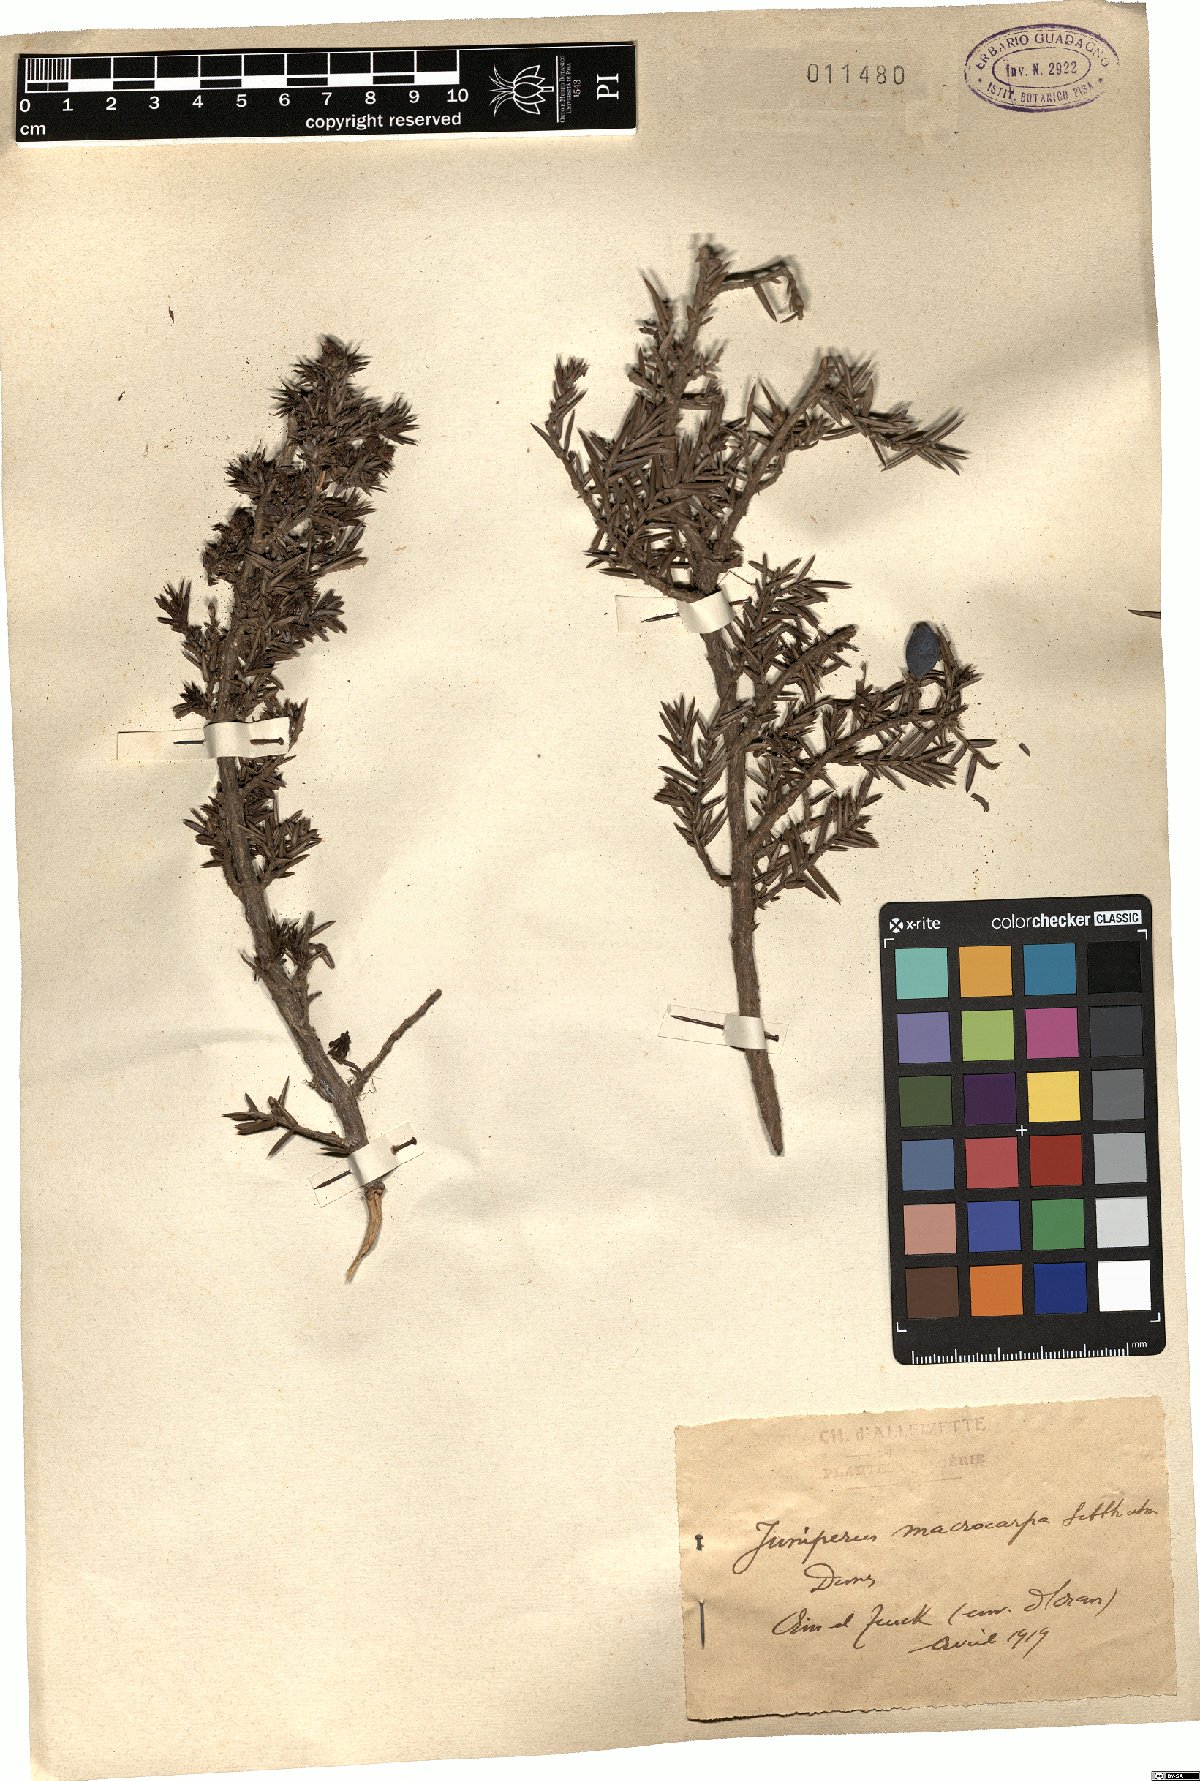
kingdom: Plantae
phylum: Tracheophyta
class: Pinopsida
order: Pinales
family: Cupressaceae
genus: Juniperus
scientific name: Juniperus oxycedrus
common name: Prickly juniper
